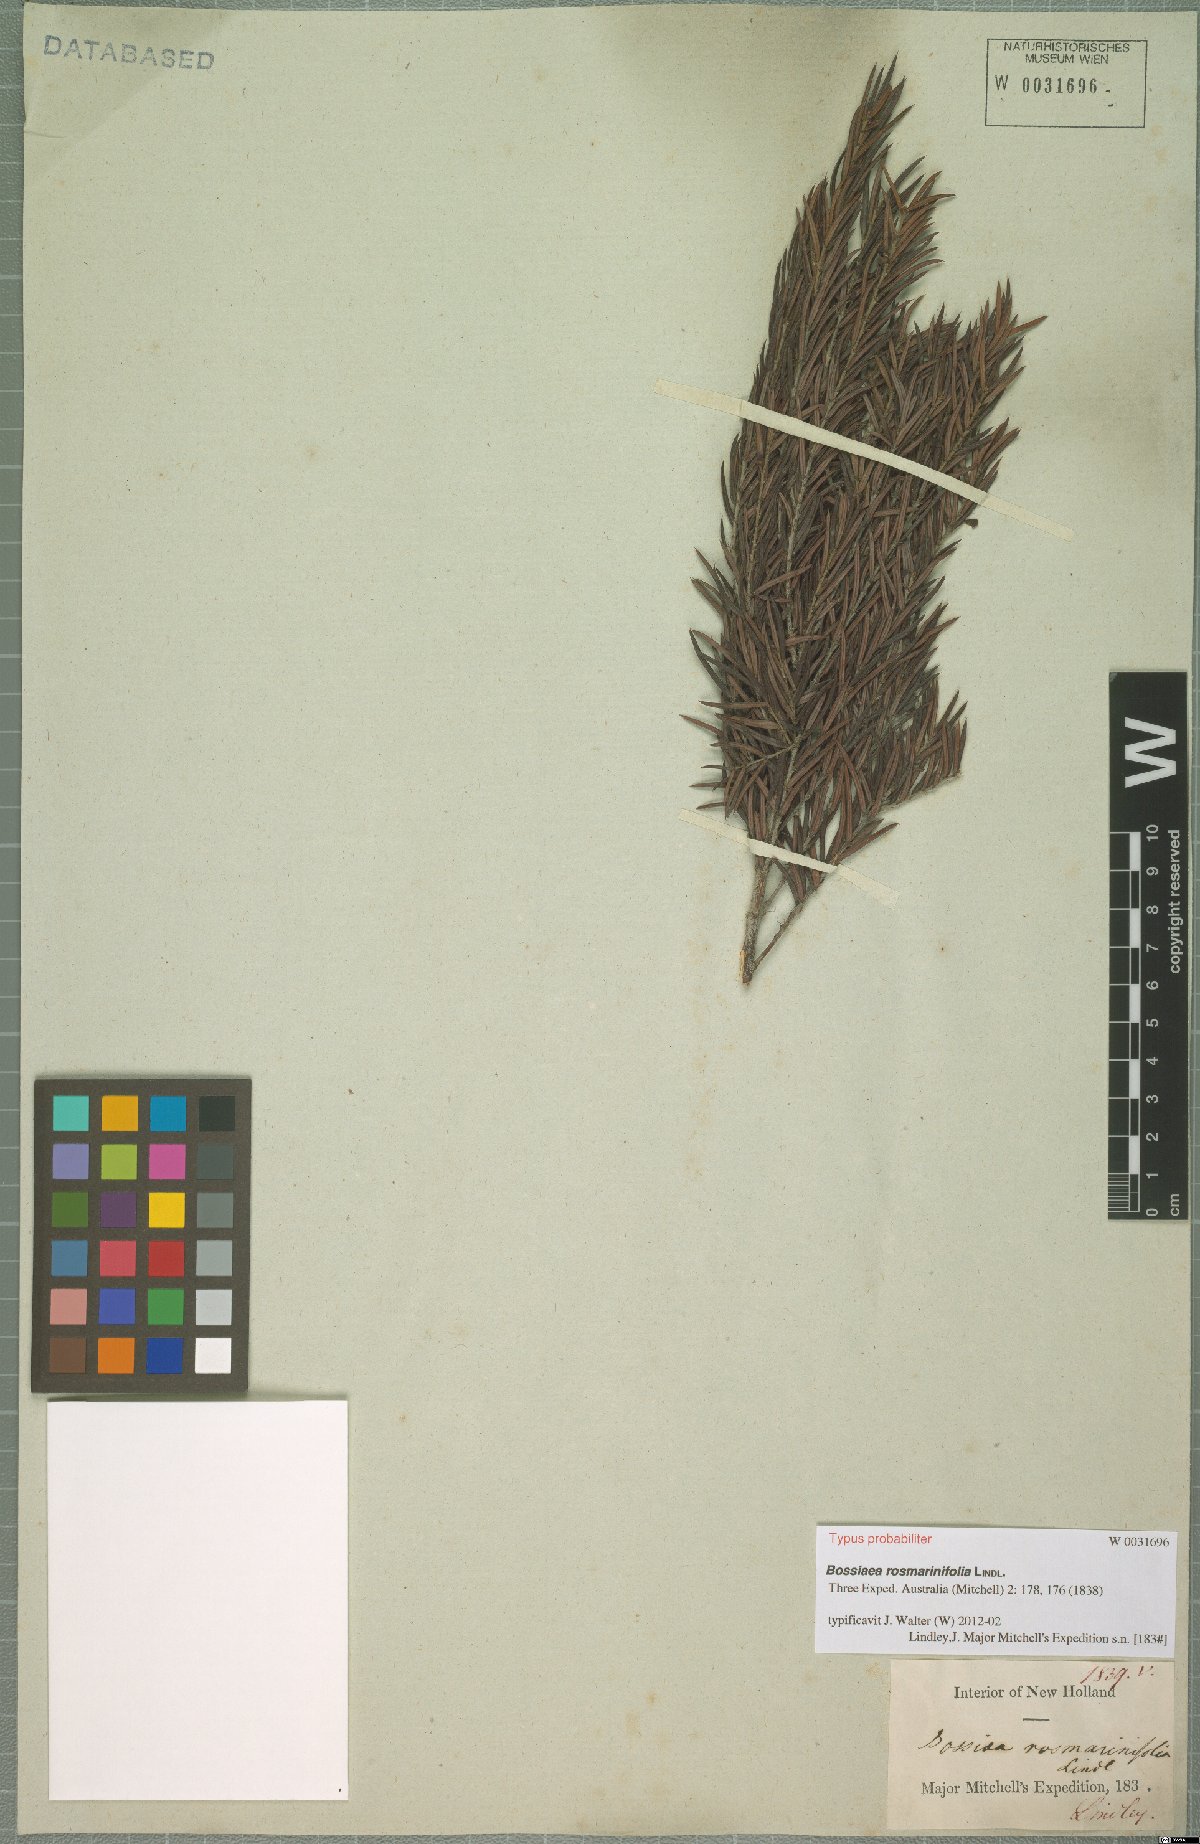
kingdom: Plantae
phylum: Tracheophyta
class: Magnoliopsida
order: Fabales
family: Fabaceae
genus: Bossiaea
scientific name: Bossiaea rosmarinifolia
